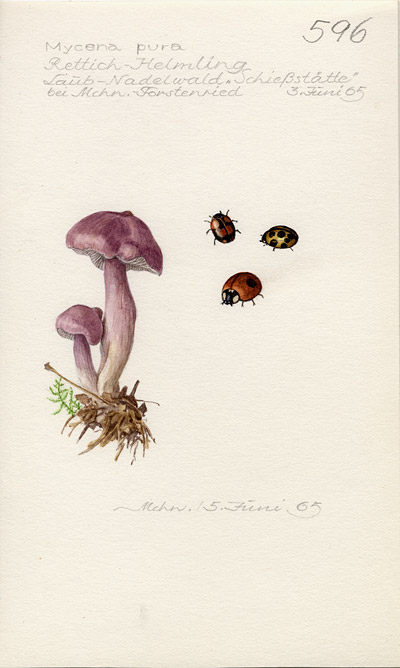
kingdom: Fungi
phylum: Basidiomycota
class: Agaricomycetes
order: Agaricales
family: Mycenaceae
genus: Mycena
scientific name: Mycena pura
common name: Lilac bonnet
